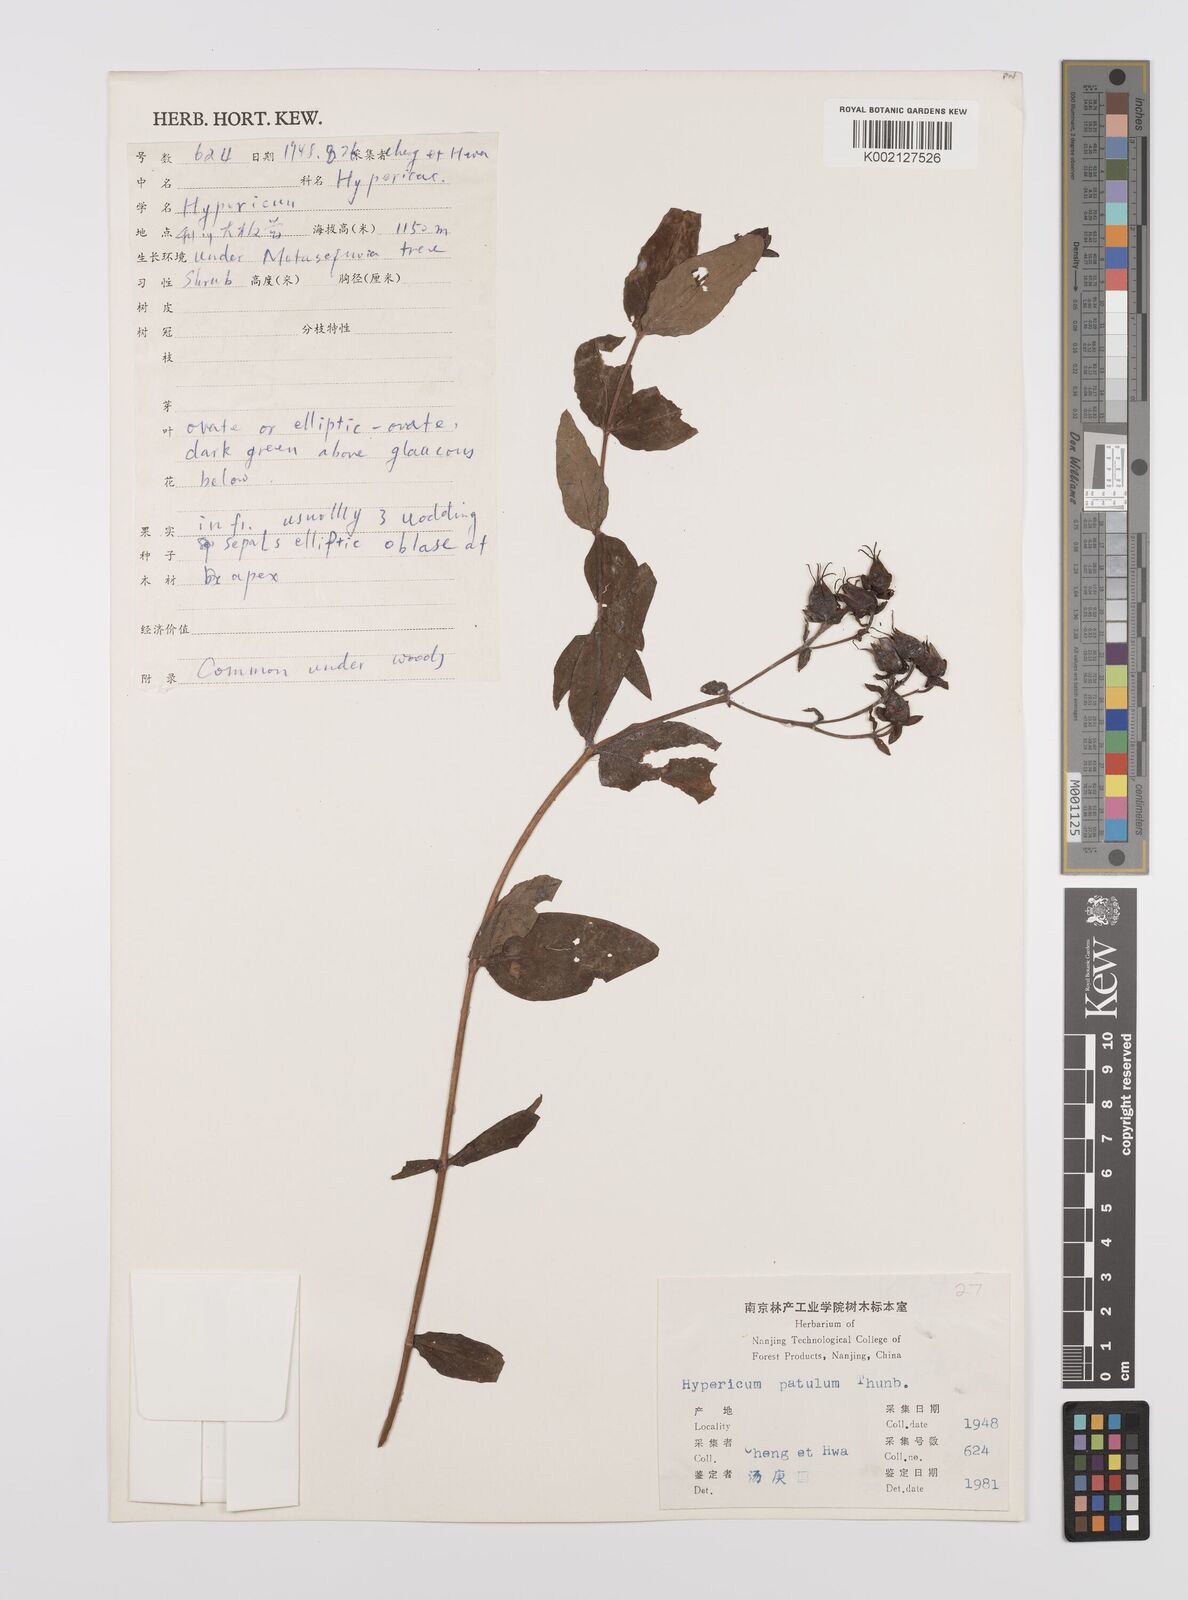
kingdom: Plantae
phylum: Tracheophyta
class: Magnoliopsida
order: Malpighiales
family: Hypericaceae
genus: Hypericum
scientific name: Hypericum patulum
